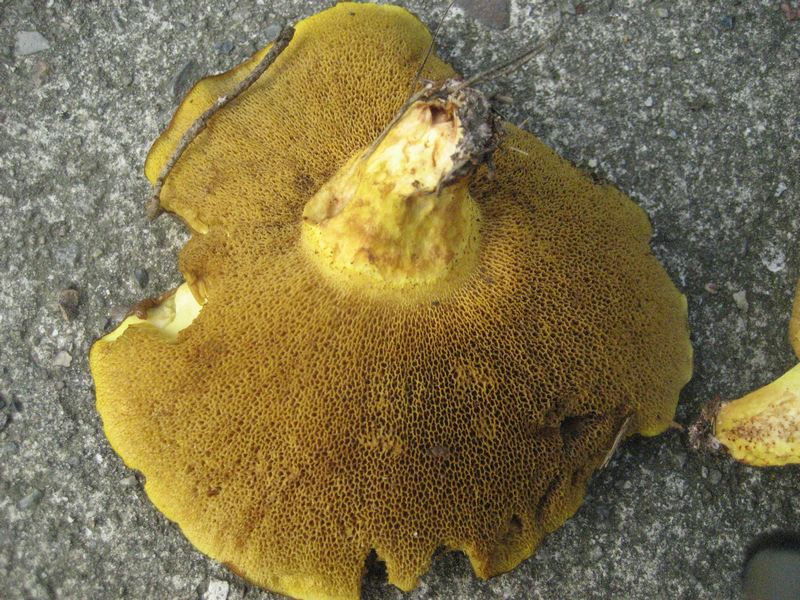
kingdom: Fungi
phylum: Basidiomycota
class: Agaricomycetes
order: Boletales
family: Suillaceae
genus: Suillus
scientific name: Suillus collinitus
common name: rosafodet slimrørhat
